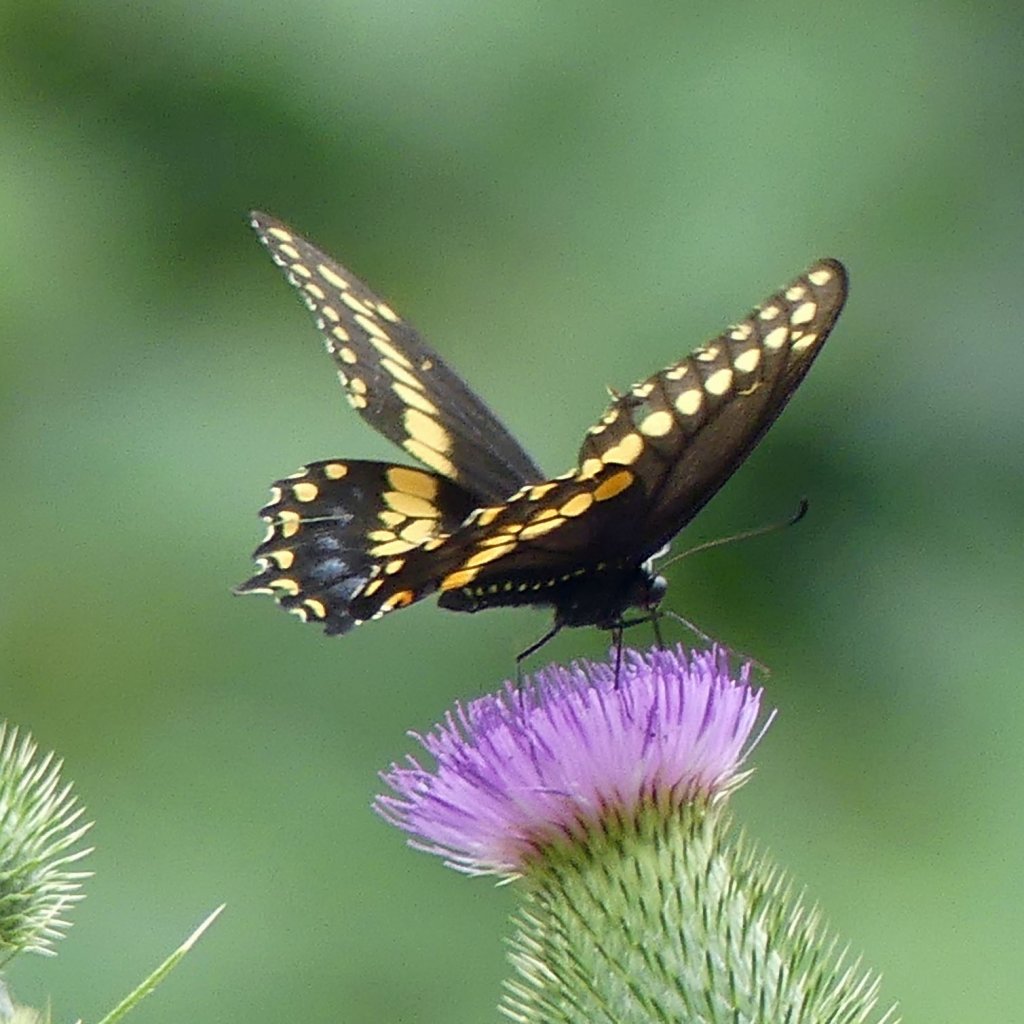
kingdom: Animalia
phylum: Arthropoda
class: Insecta
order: Lepidoptera
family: Papilionidae
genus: Papilio
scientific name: Papilio polyxenes
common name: Black Swallowtail
